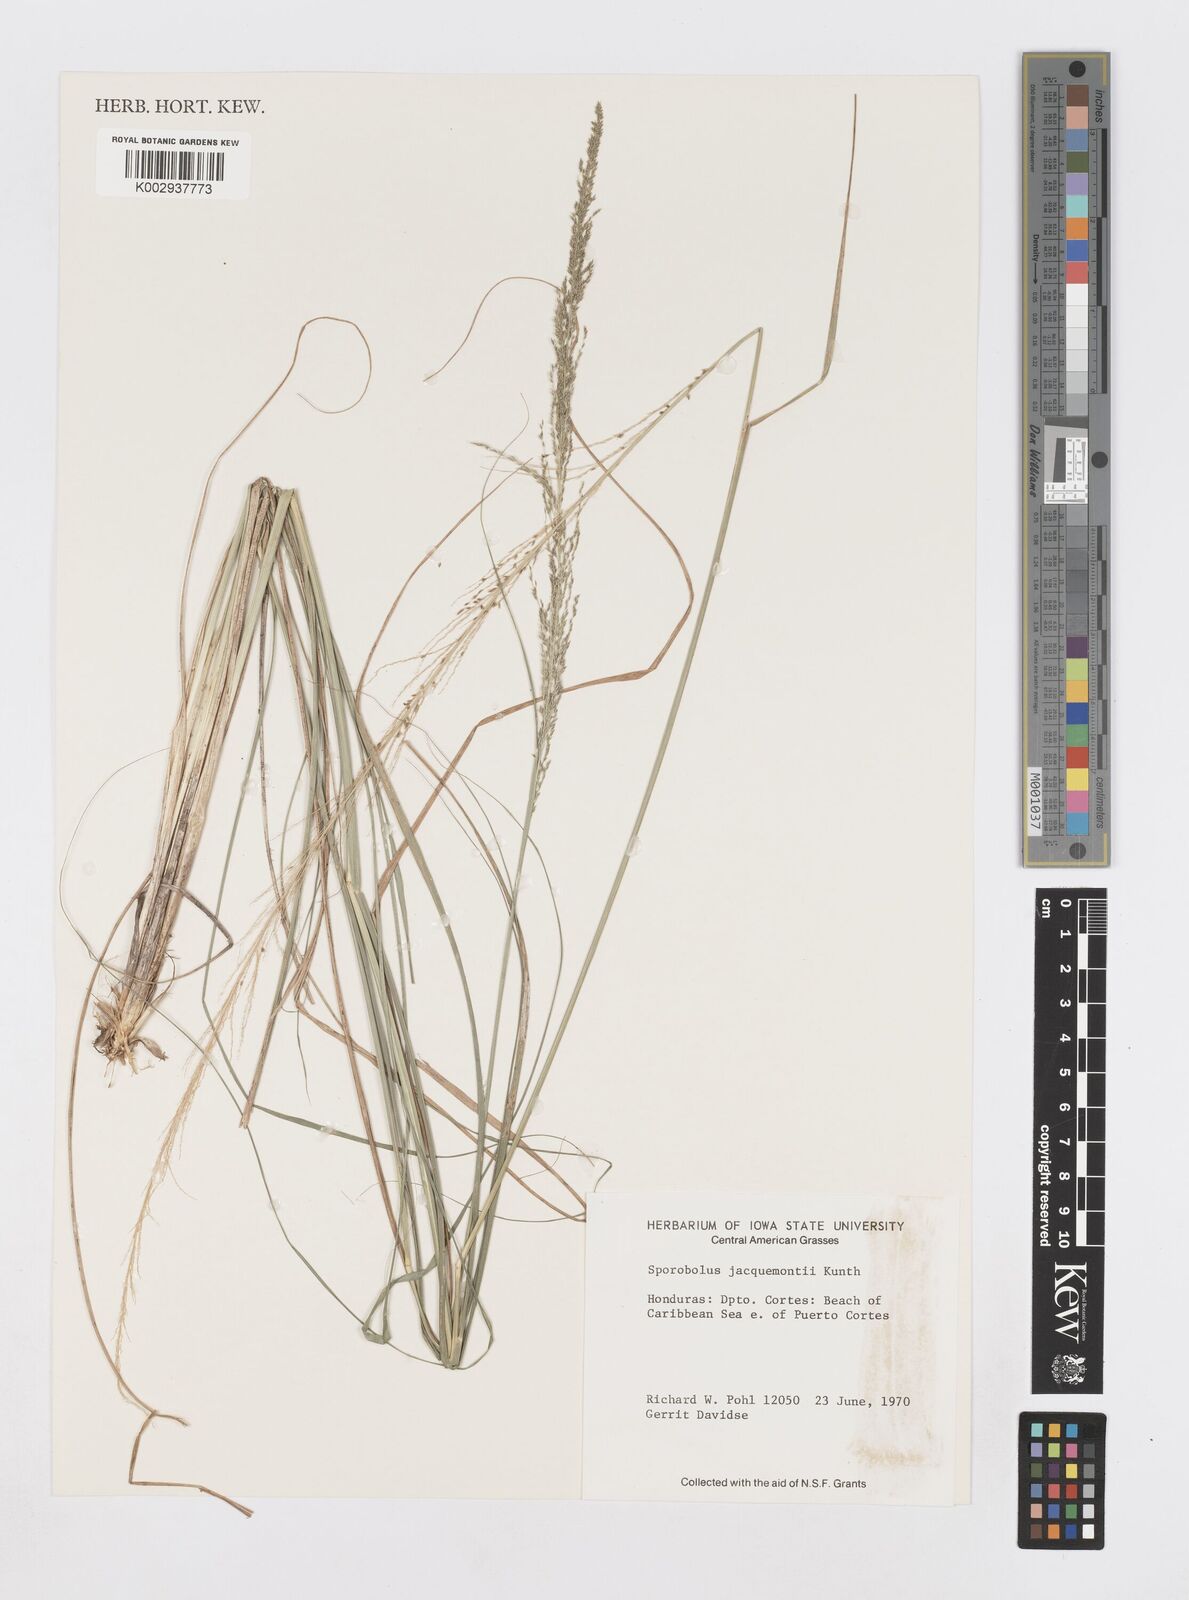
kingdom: Plantae
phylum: Tracheophyta
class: Liliopsida
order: Poales
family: Poaceae
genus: Sporobolus
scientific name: Sporobolus pyramidalis
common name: West indian dropseed
